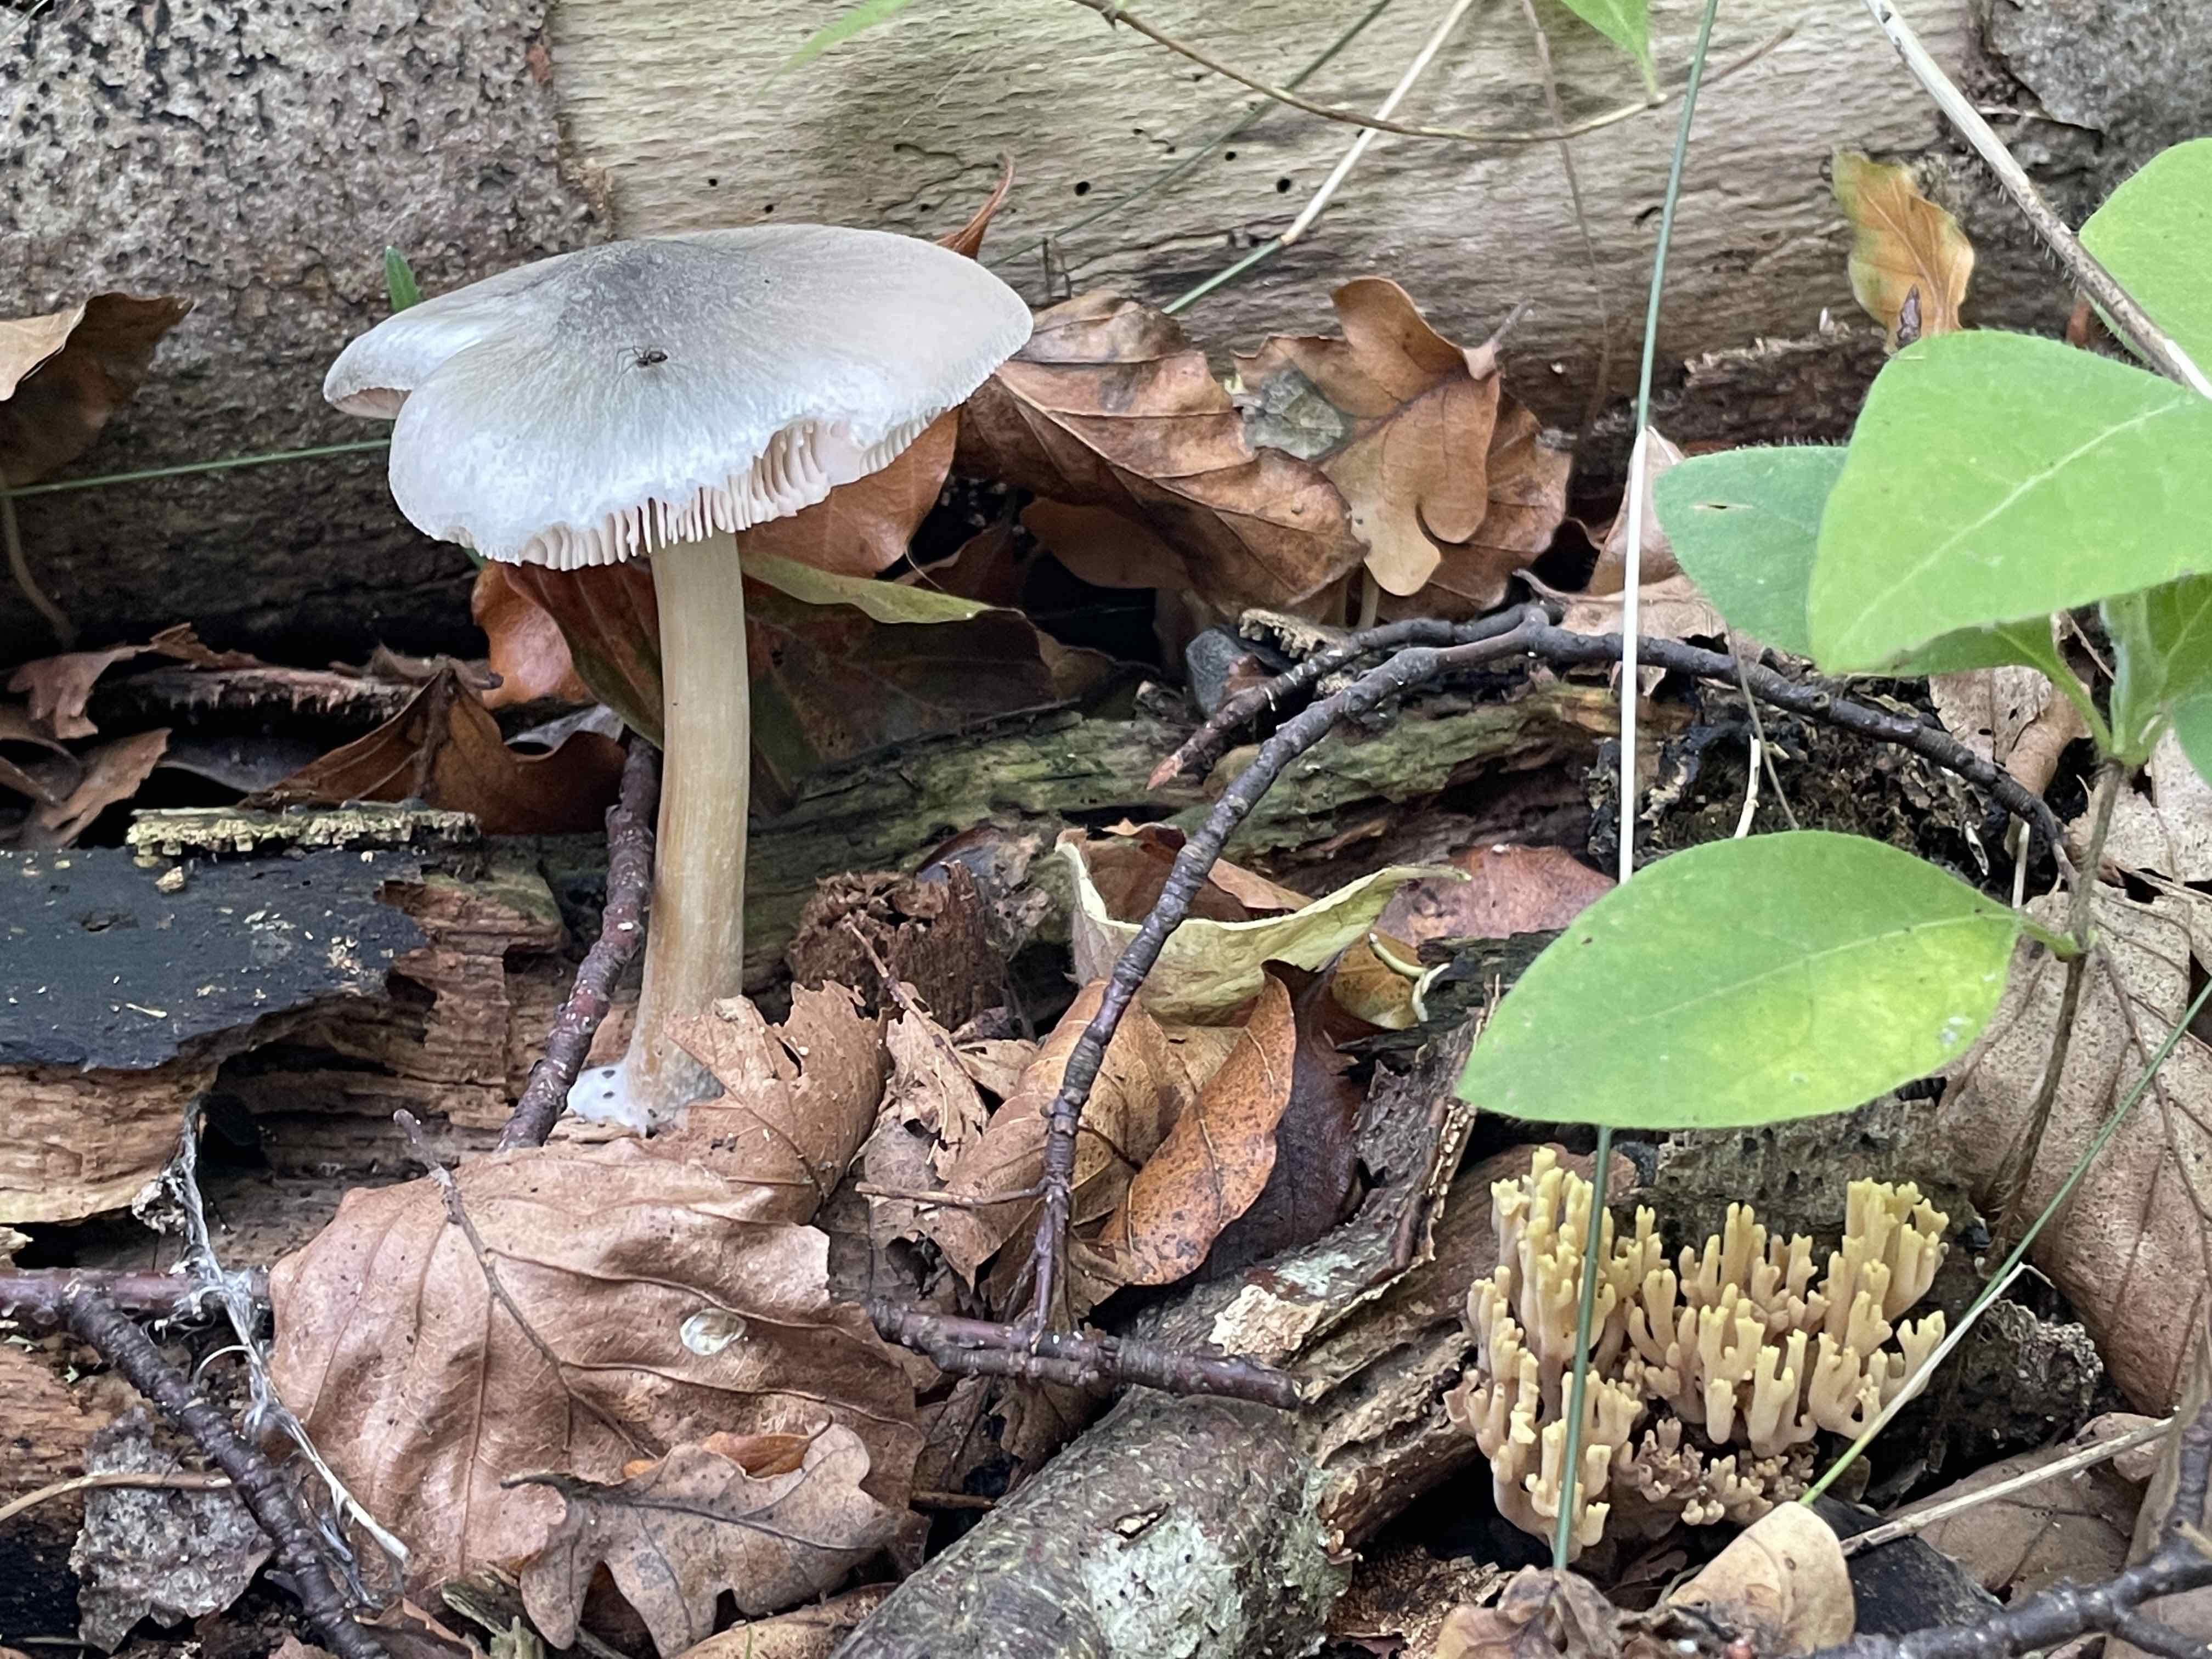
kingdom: Fungi
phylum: Basidiomycota
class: Agaricomycetes
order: Agaricales
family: Pluteaceae
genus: Pluteus
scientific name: Pluteus salicinus
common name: stiv skærmhat
